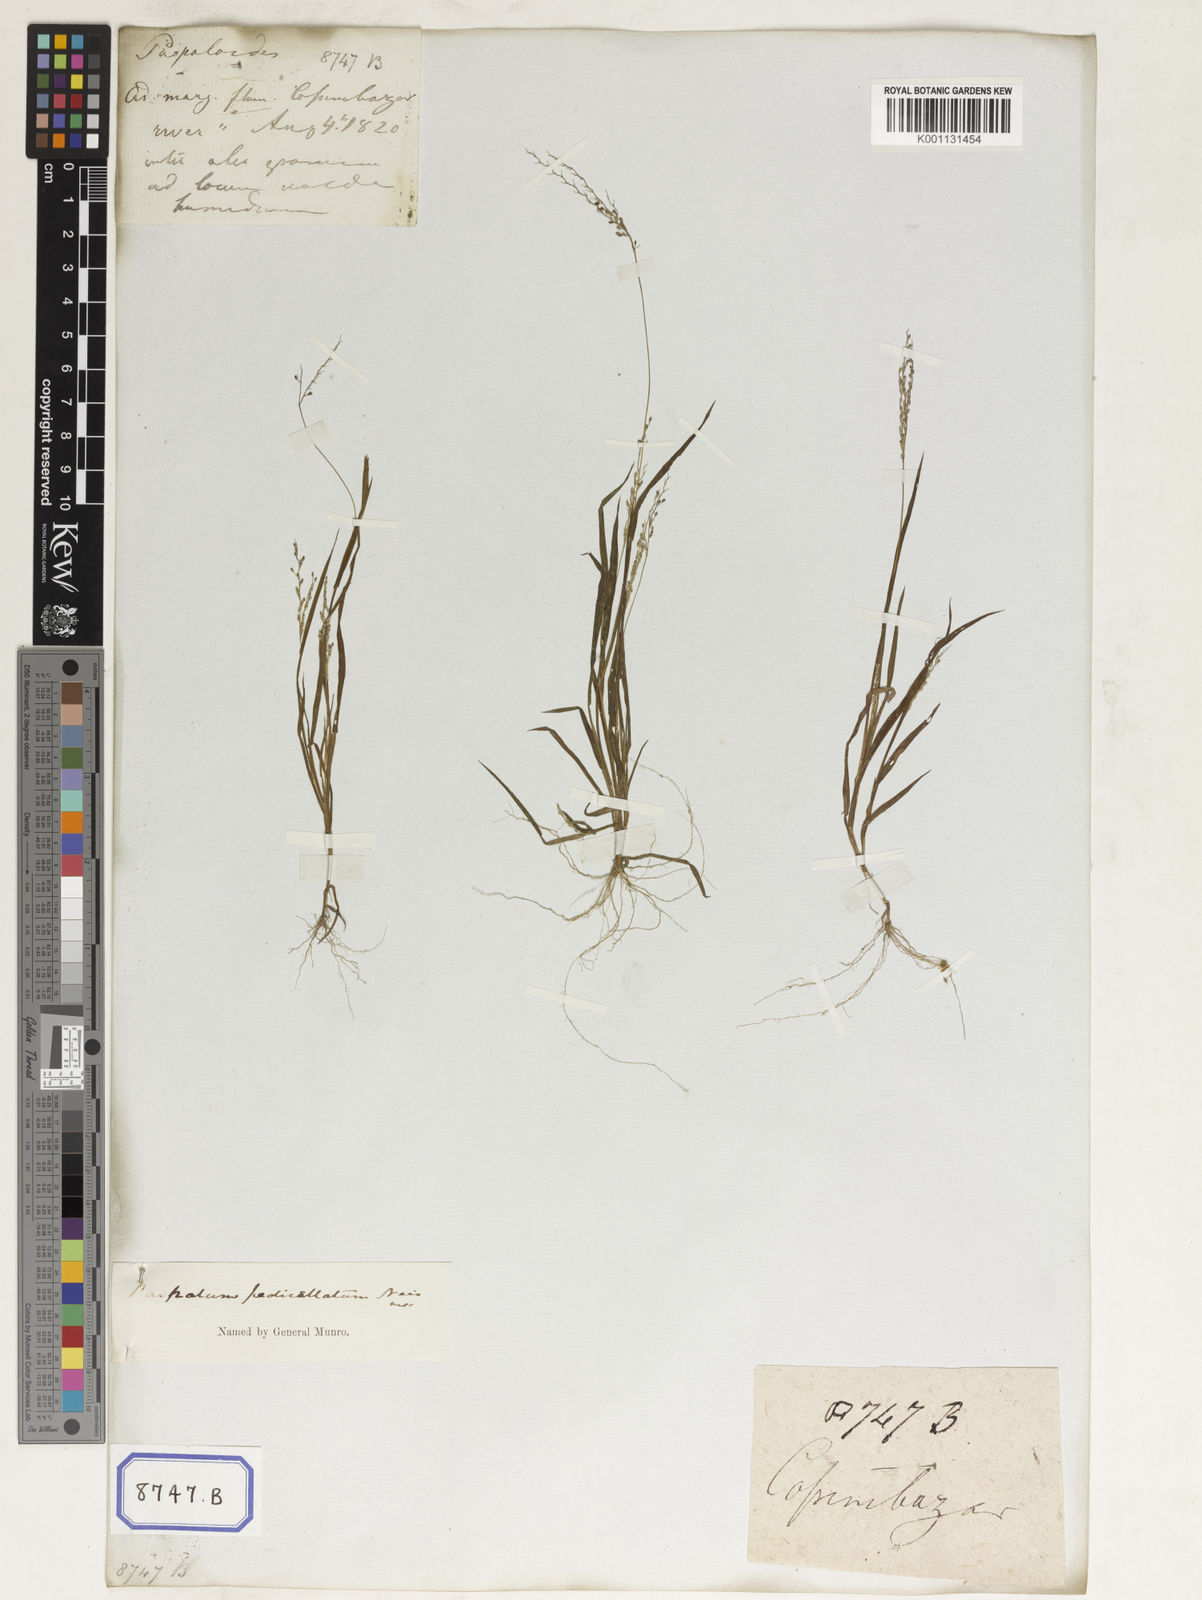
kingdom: Plantae
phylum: Tracheophyta
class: Liliopsida
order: Poales
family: Poaceae
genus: Panicum
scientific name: Panicum
